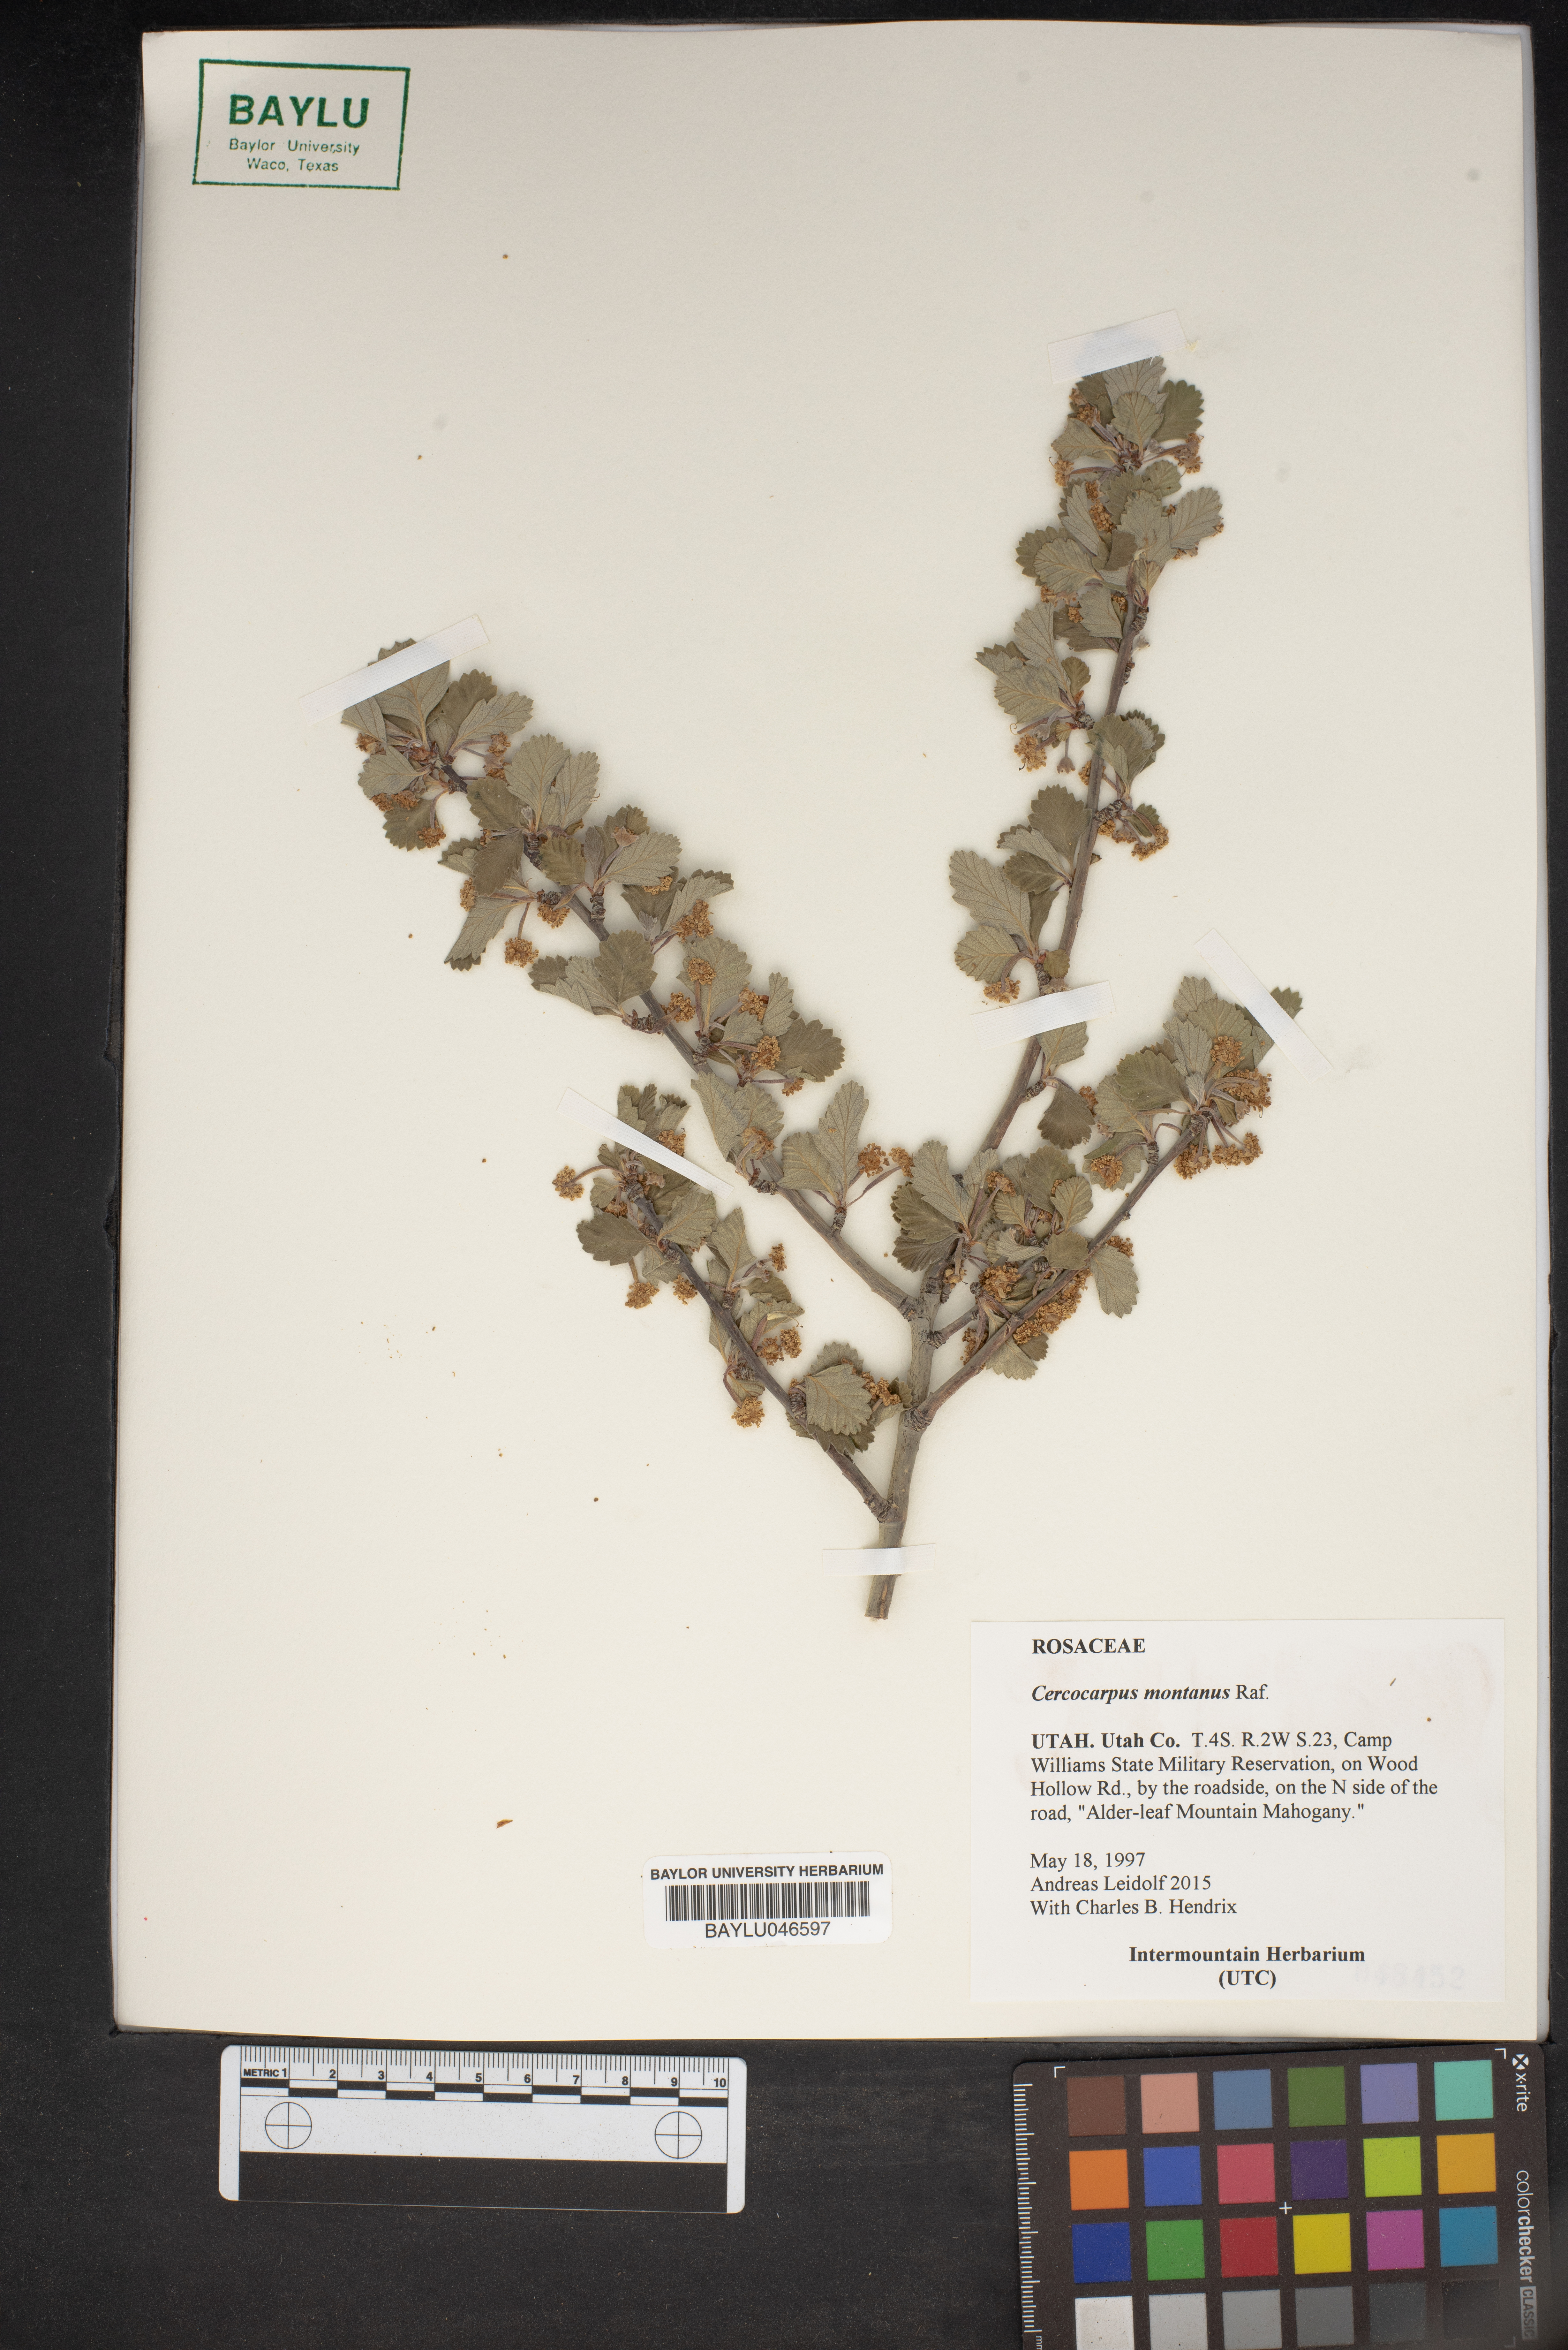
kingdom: Plantae
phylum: Tracheophyta
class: Magnoliopsida
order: Rosales
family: Rosaceae
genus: Cercocarpus
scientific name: Cercocarpus montanus
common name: Alder-leaf cercocarpus
